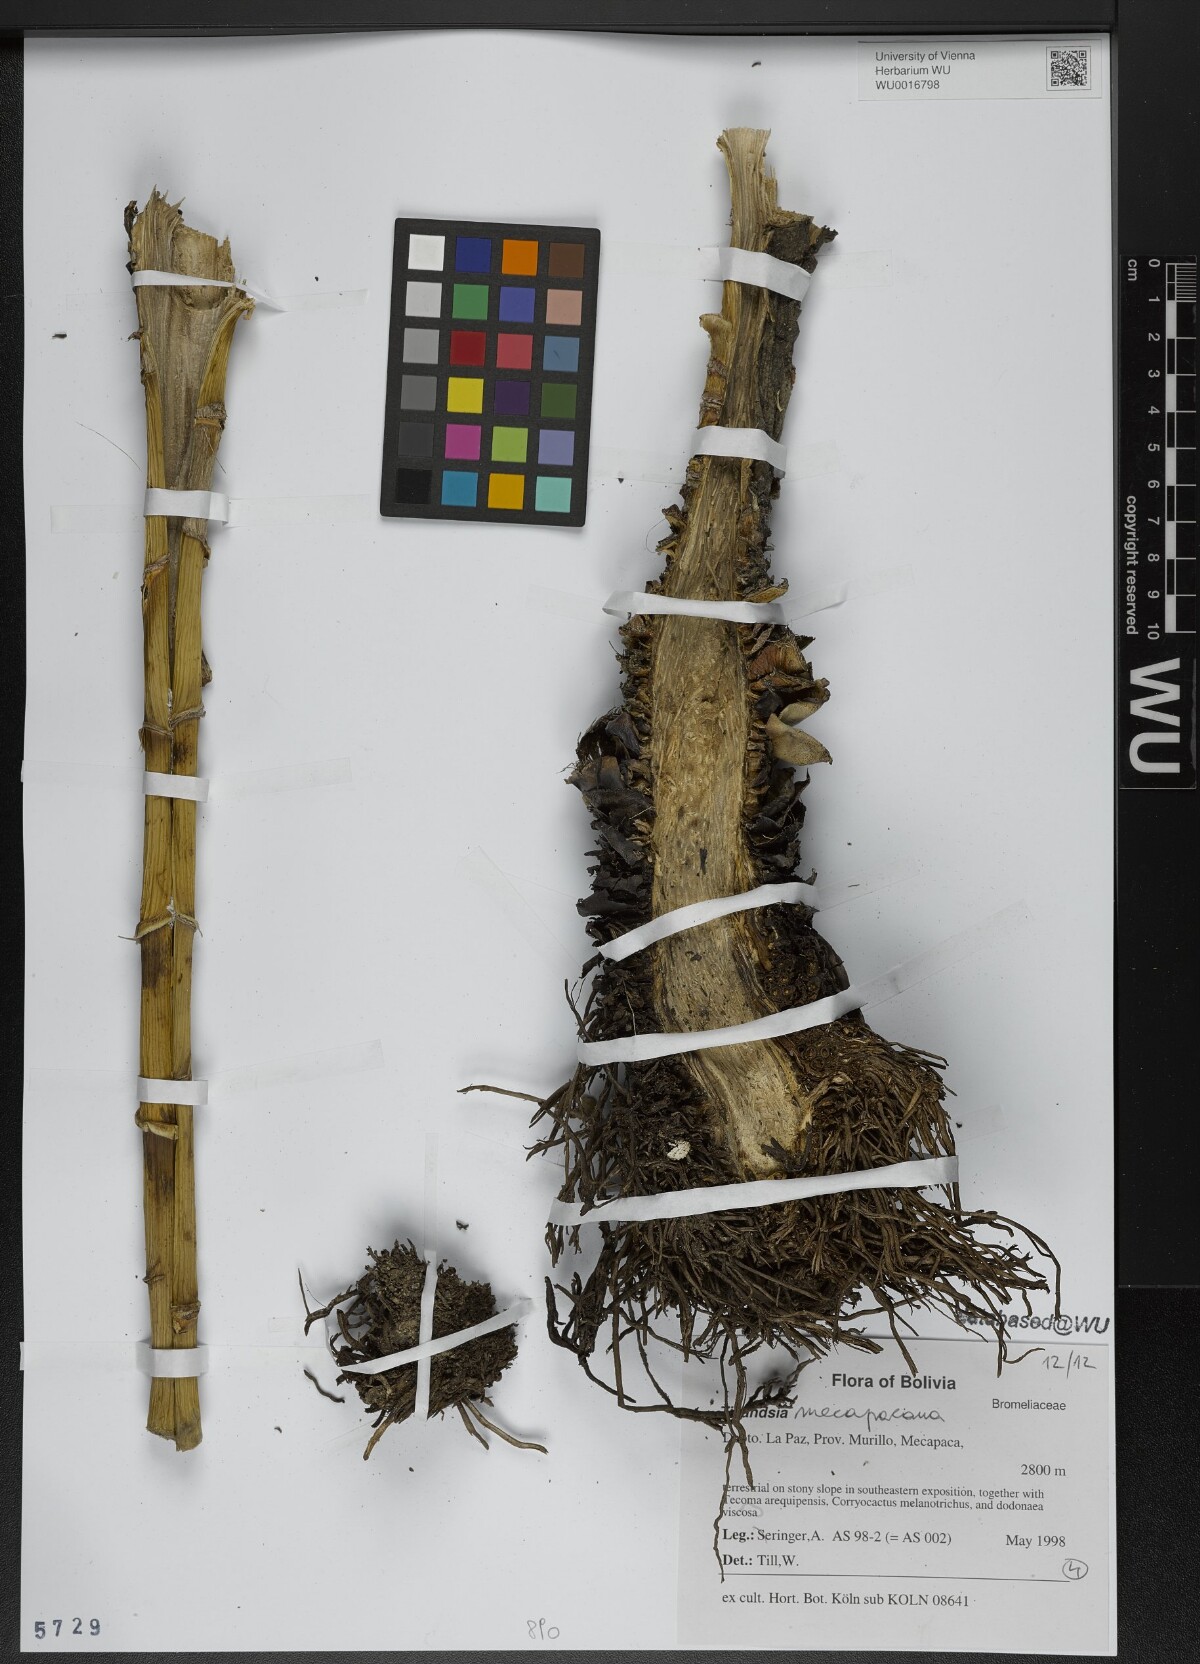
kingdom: Plantae
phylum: Tracheophyta
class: Liliopsida
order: Poales
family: Bromeliaceae
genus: Tillandsia
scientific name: Tillandsia
